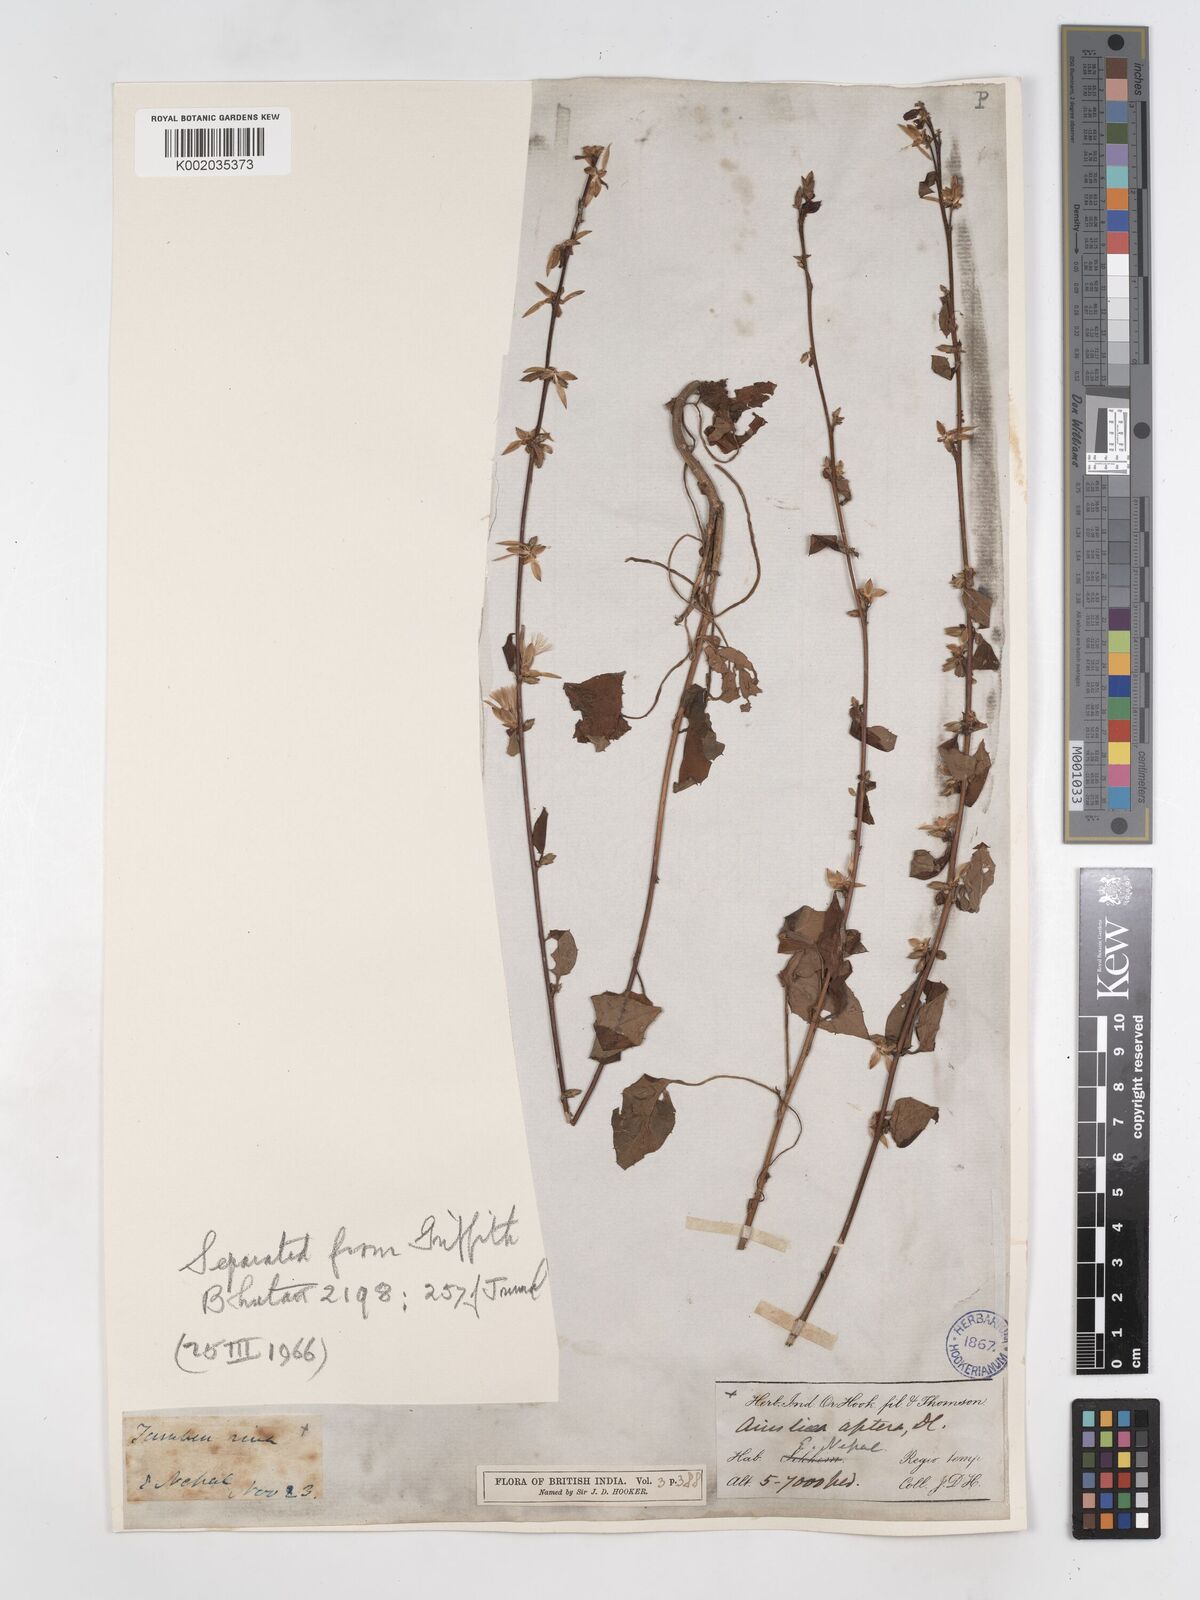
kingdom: Plantae
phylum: Tracheophyta
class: Magnoliopsida
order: Asterales
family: Asteraceae
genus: Ainsliaea
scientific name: Ainsliaea aptera
